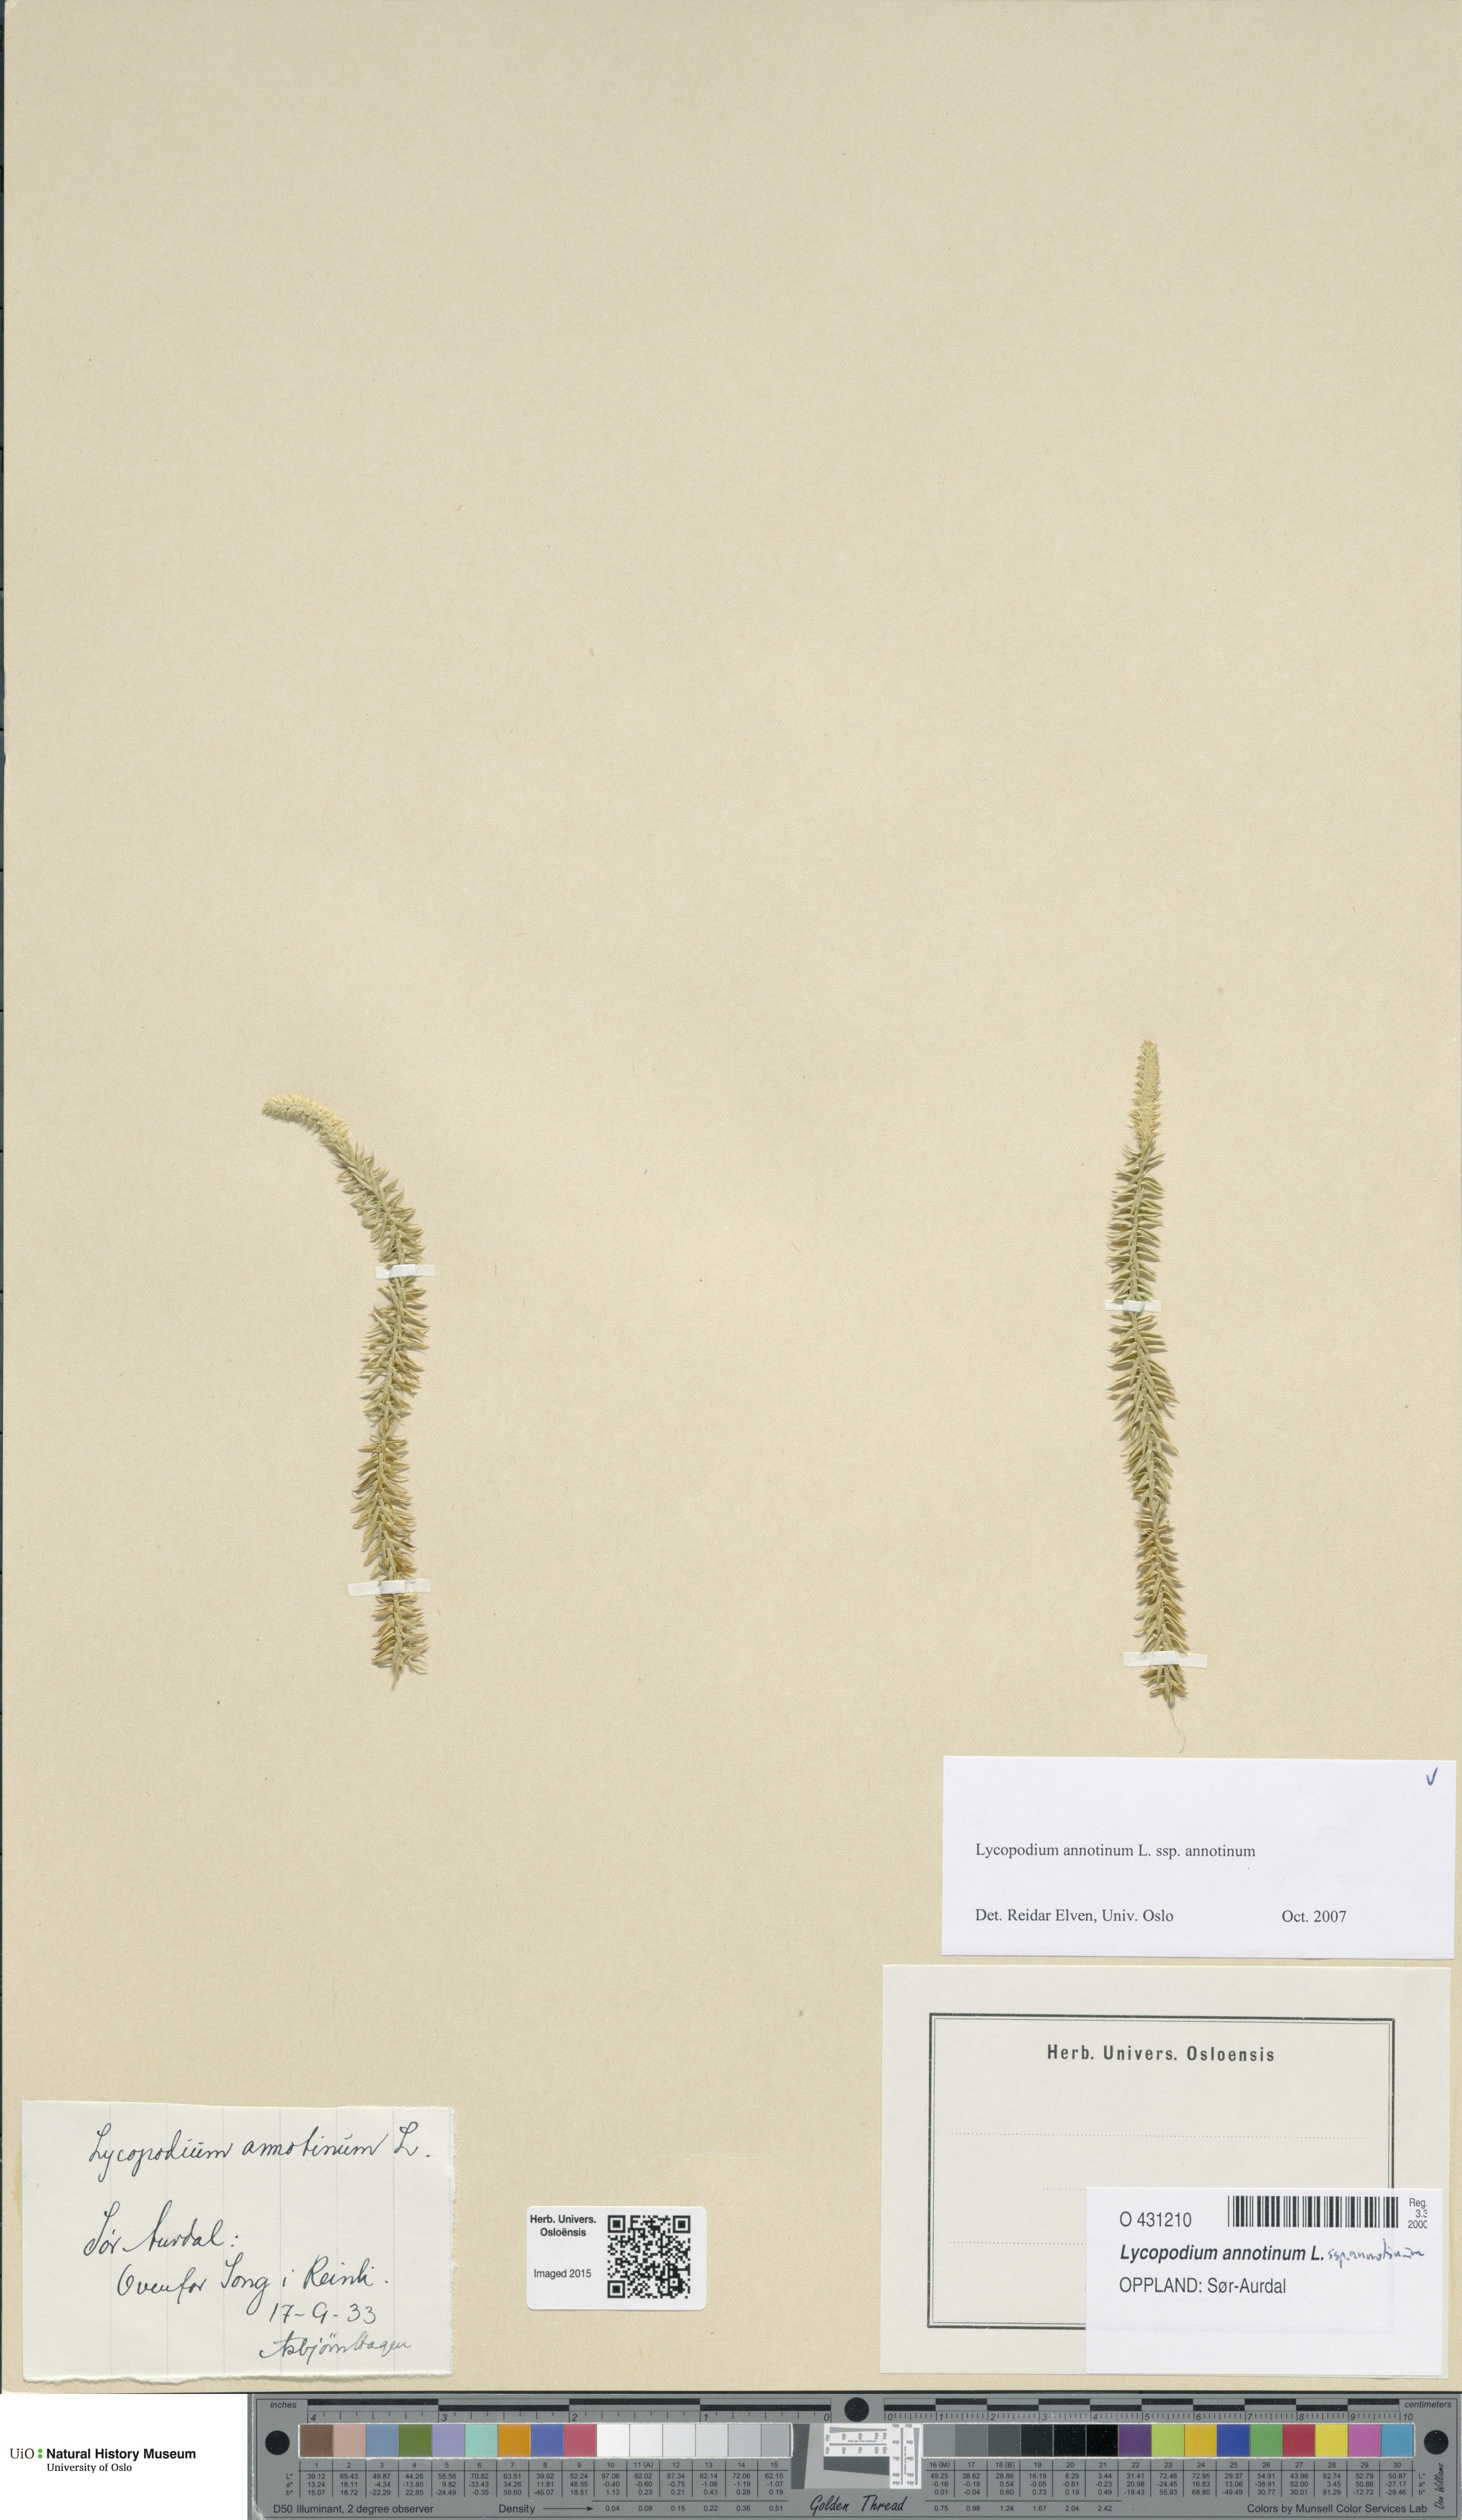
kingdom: Plantae
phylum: Tracheophyta
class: Lycopodiopsida
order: Lycopodiales
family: Lycopodiaceae
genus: Spinulum
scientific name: Spinulum annotinum
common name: Interrupted club-moss
